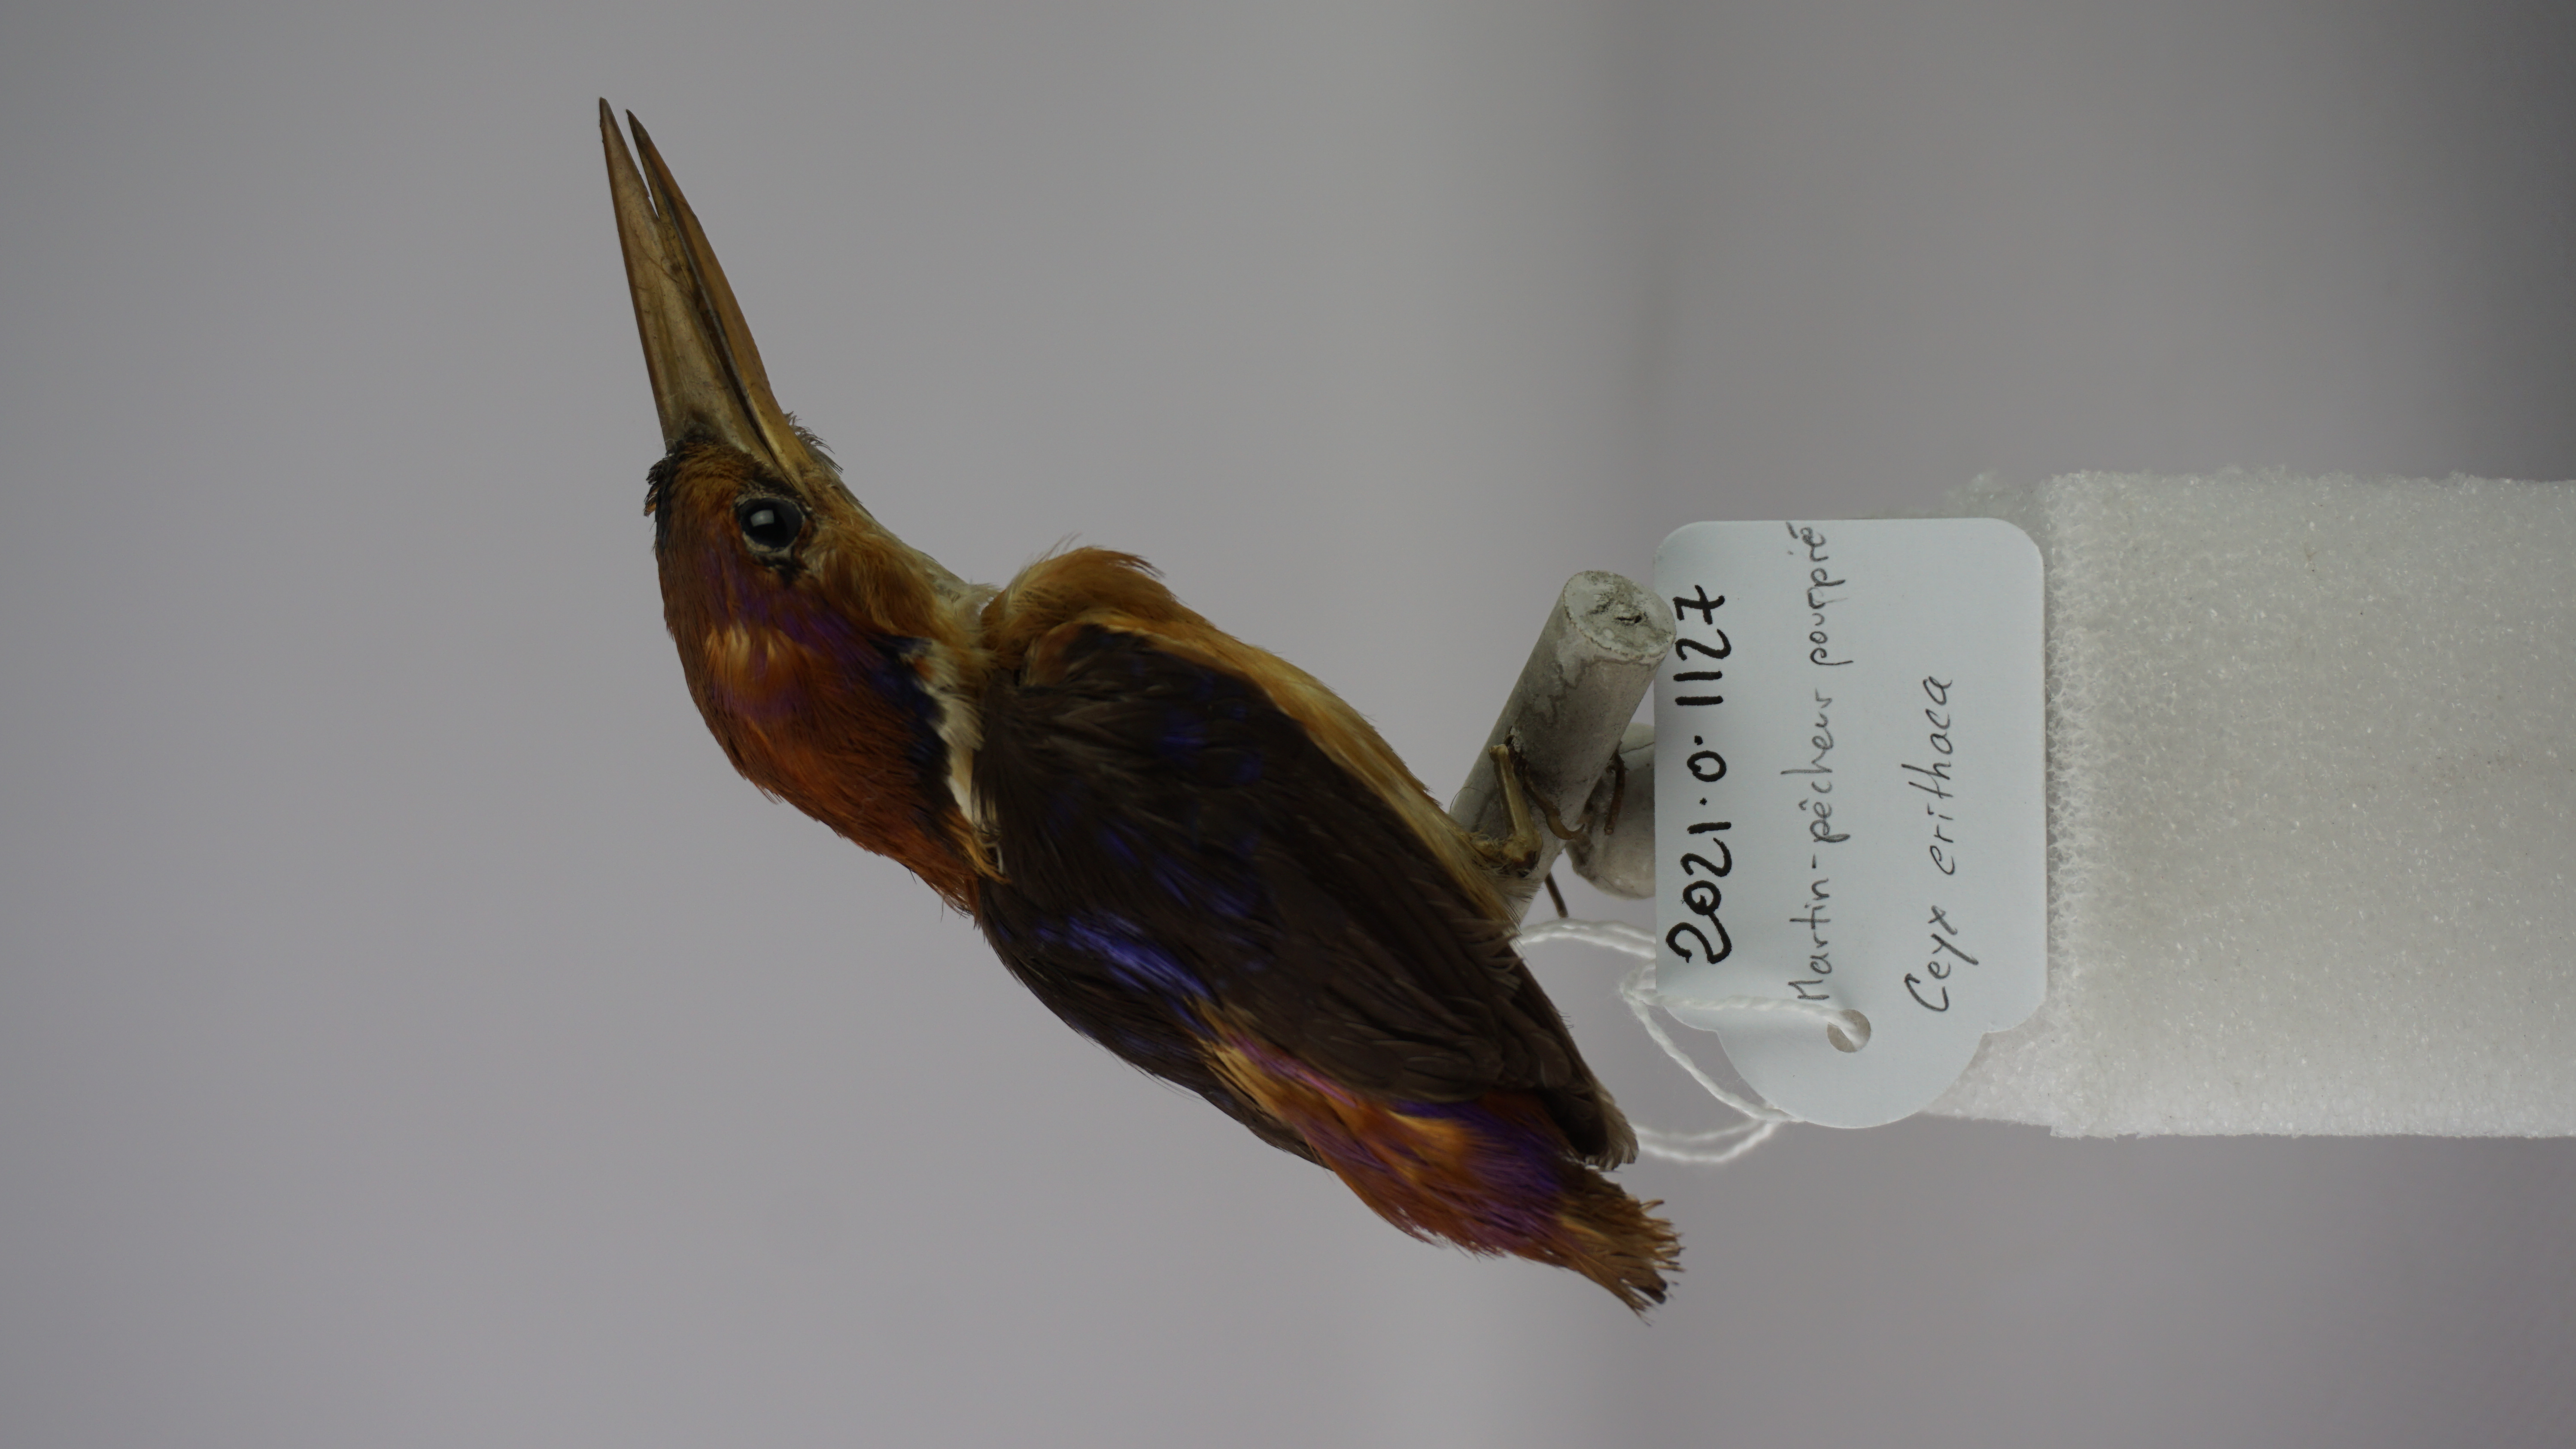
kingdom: Animalia
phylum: Chordata
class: Aves
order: Coraciiformes
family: Alcedinidae
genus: Ceyx
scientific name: Ceyx erithaca
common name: Oriental dwarf kingfisher
